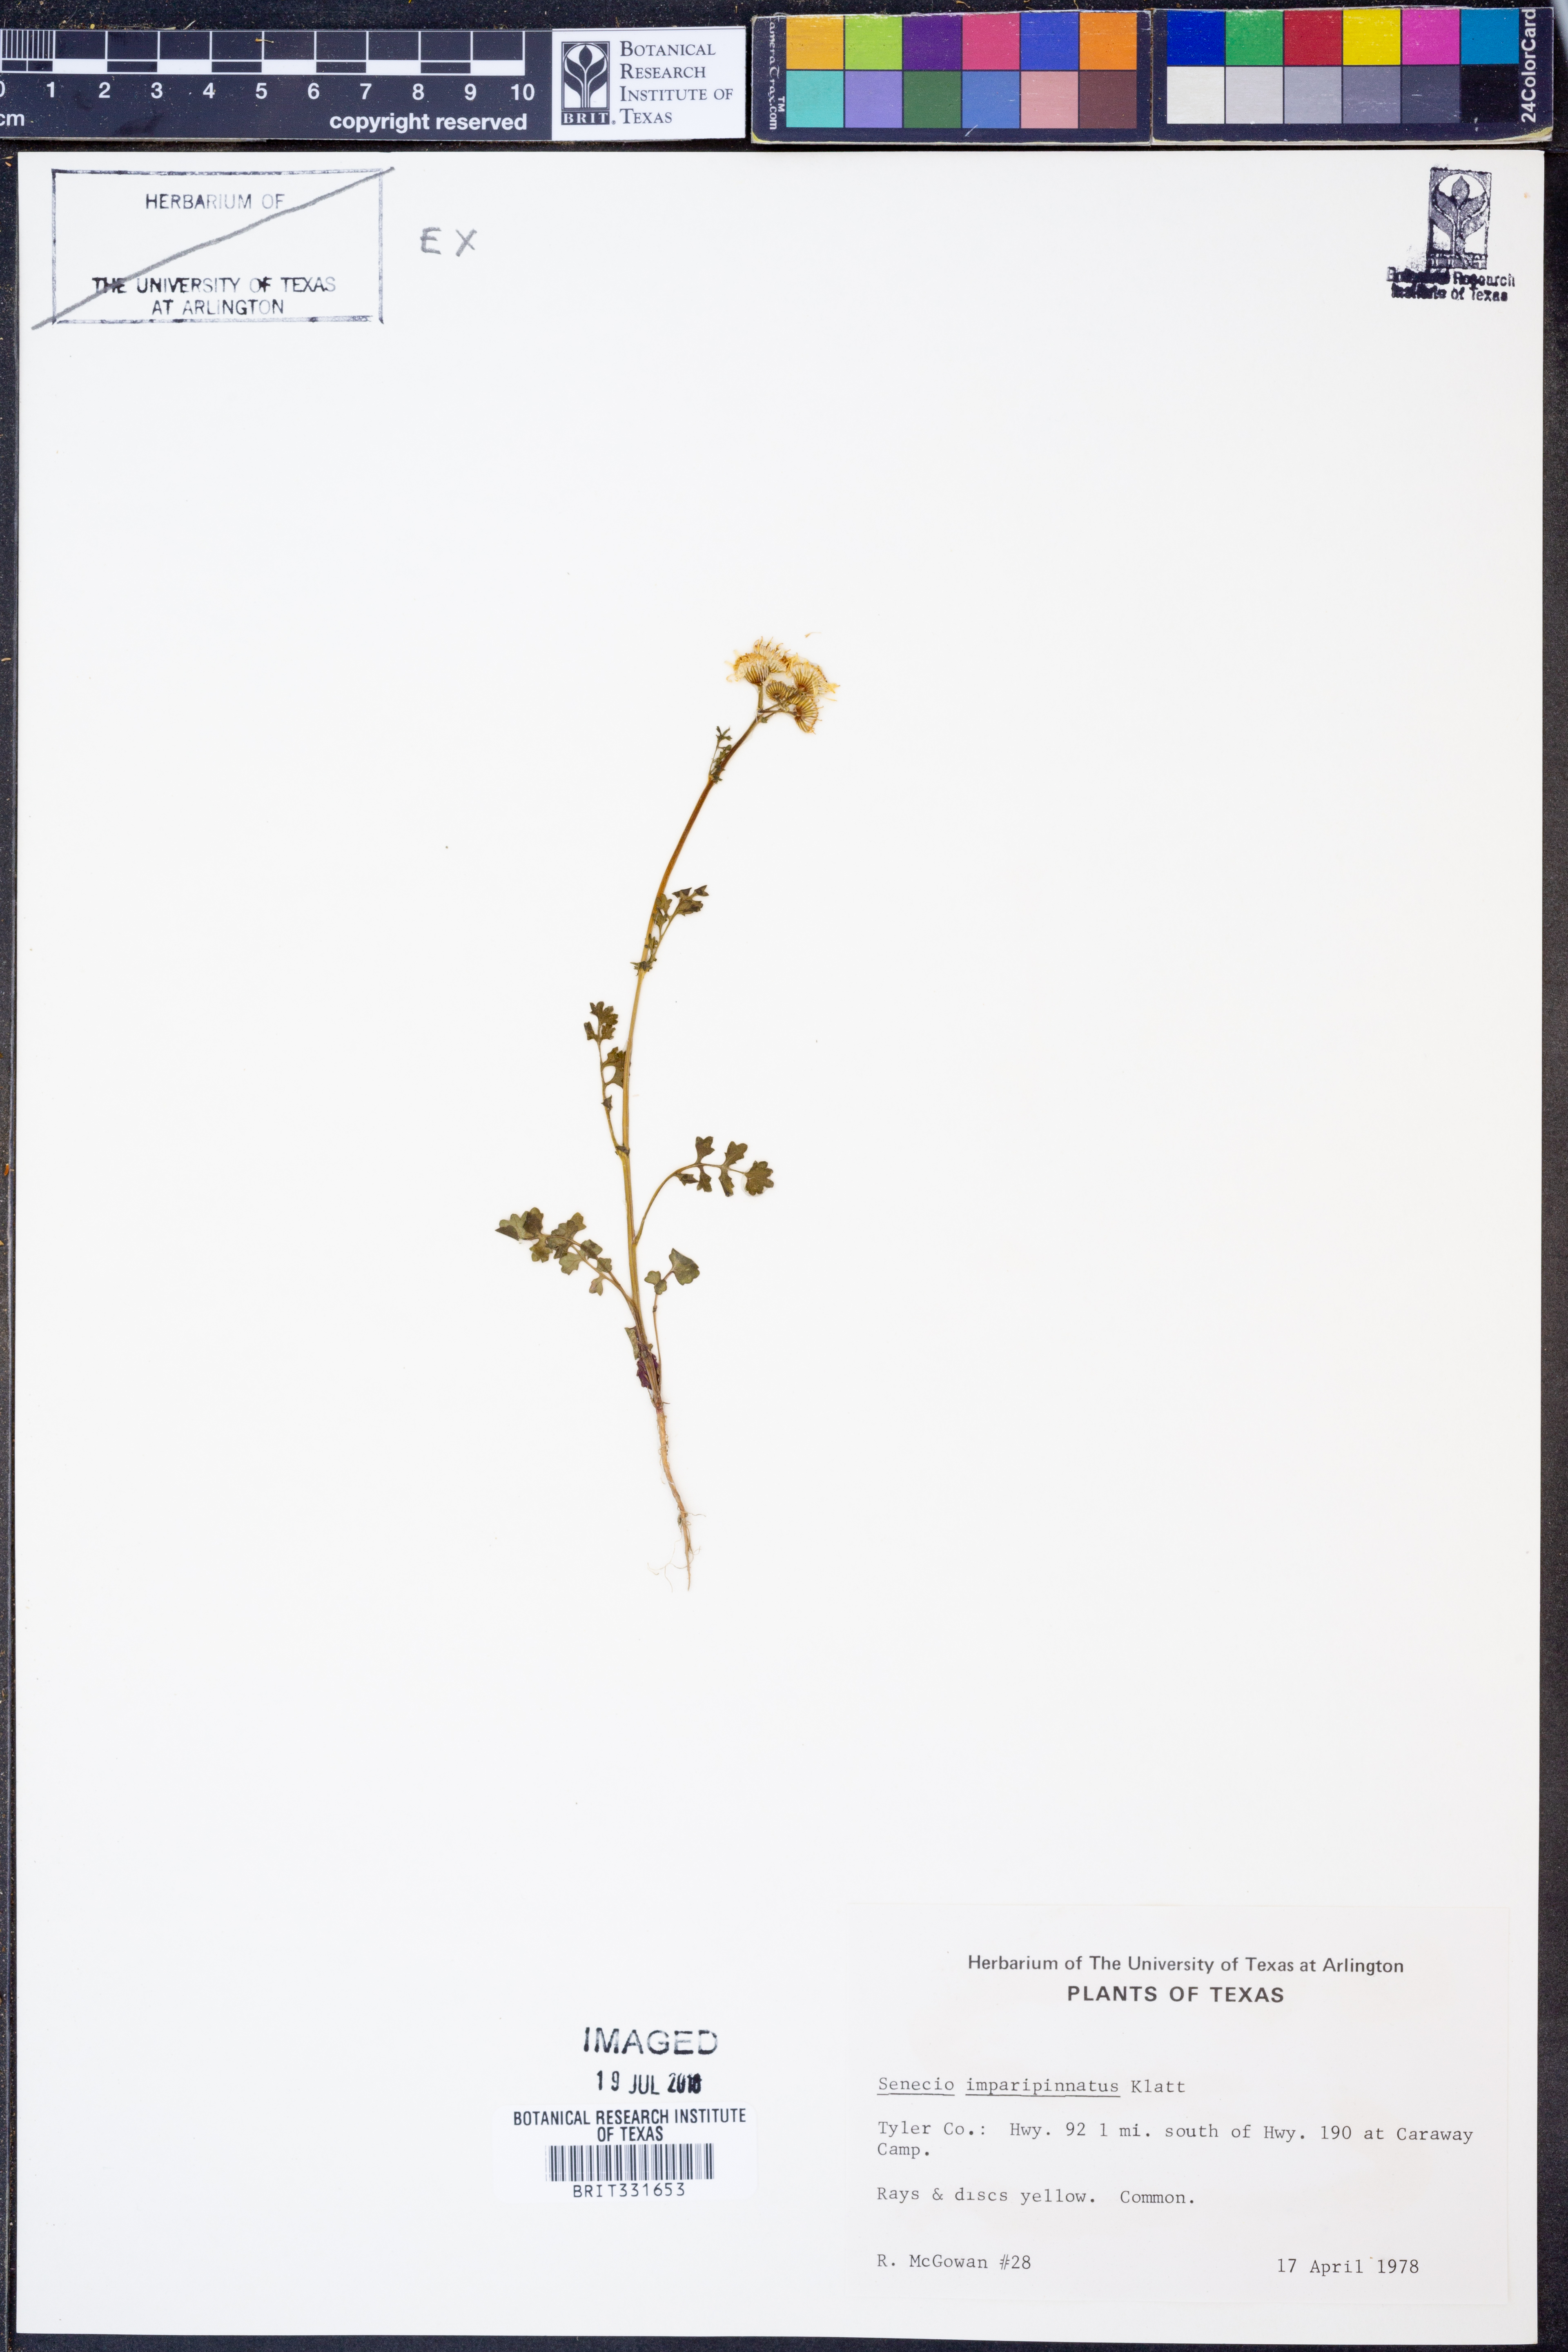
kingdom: Plantae
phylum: Tracheophyta
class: Magnoliopsida
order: Asterales
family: Asteraceae
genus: Packera
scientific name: Packera tampicana
